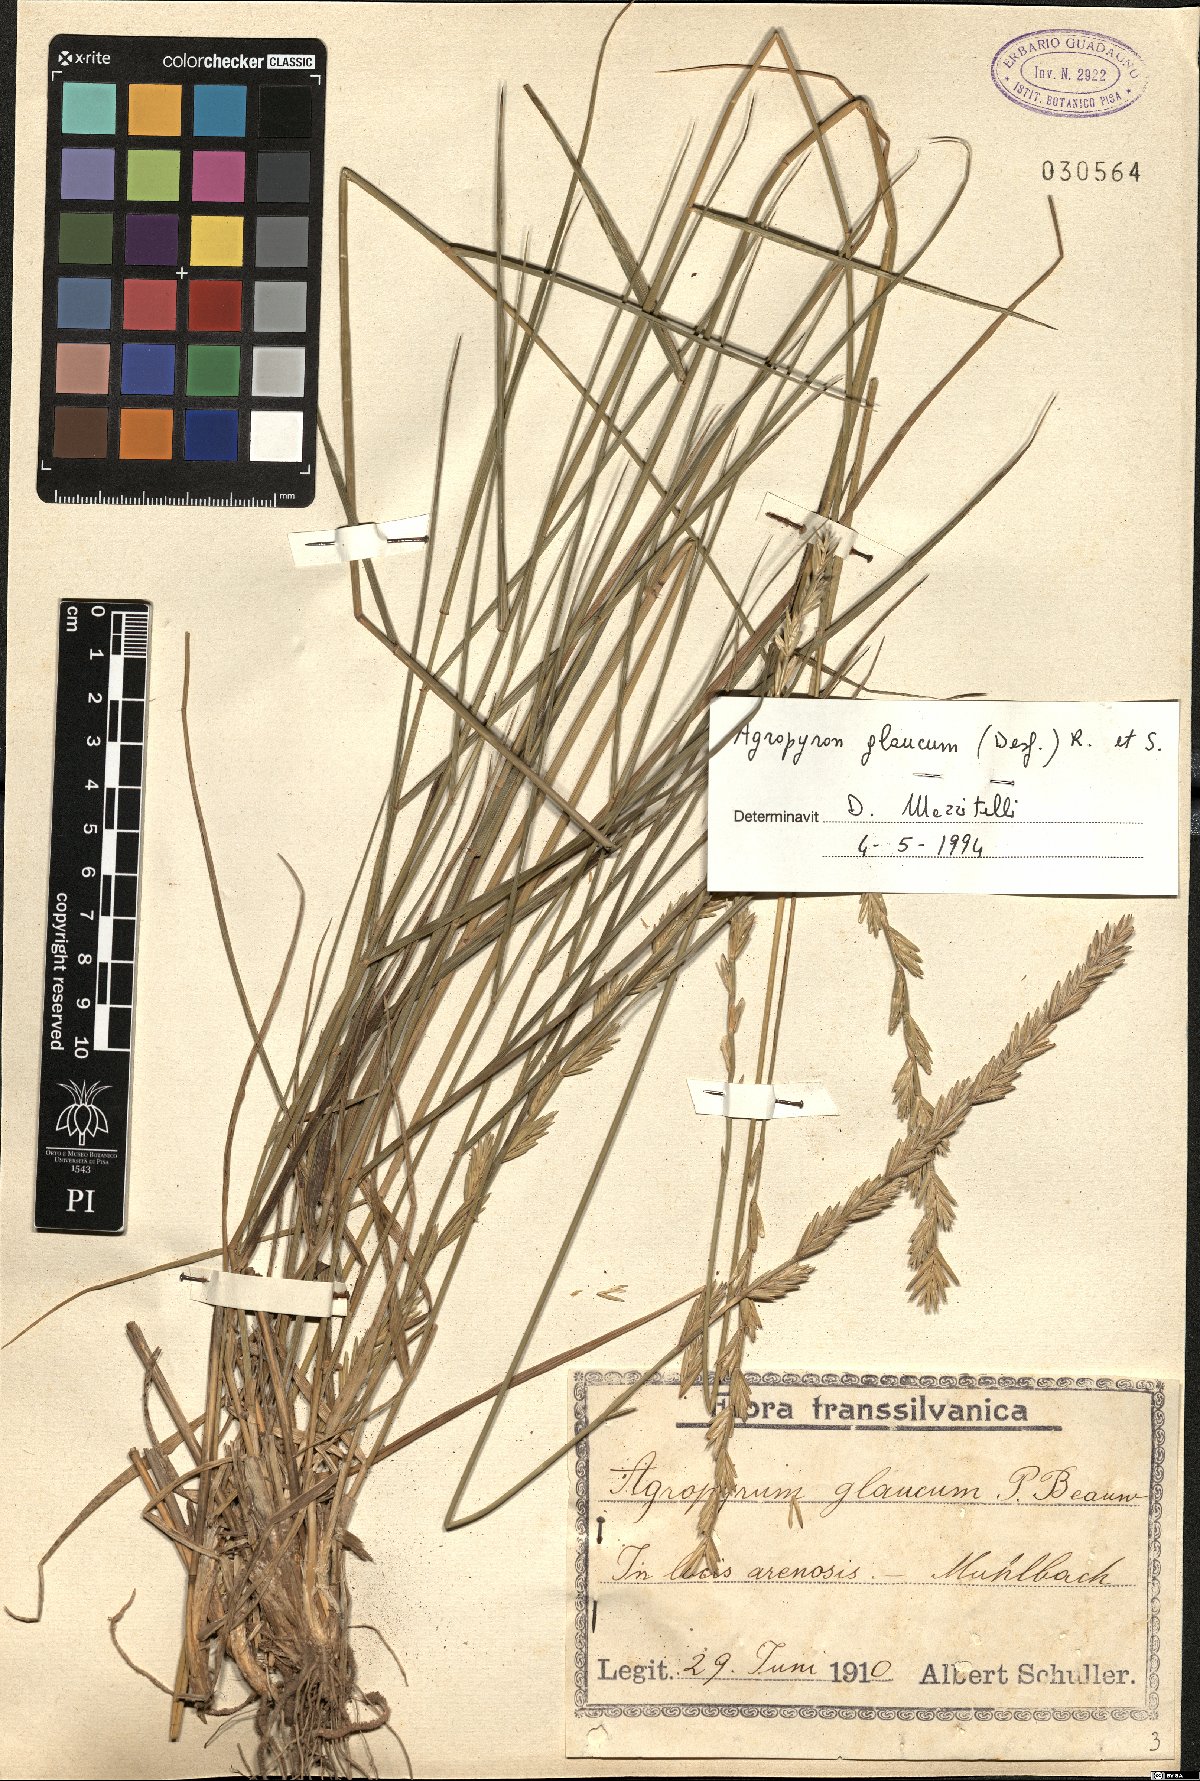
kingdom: Plantae
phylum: Tracheophyta
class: Liliopsida
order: Poales
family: Poaceae
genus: Thinopyrum
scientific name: Thinopyrum intermedium
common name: Intermediate wheatgrass
